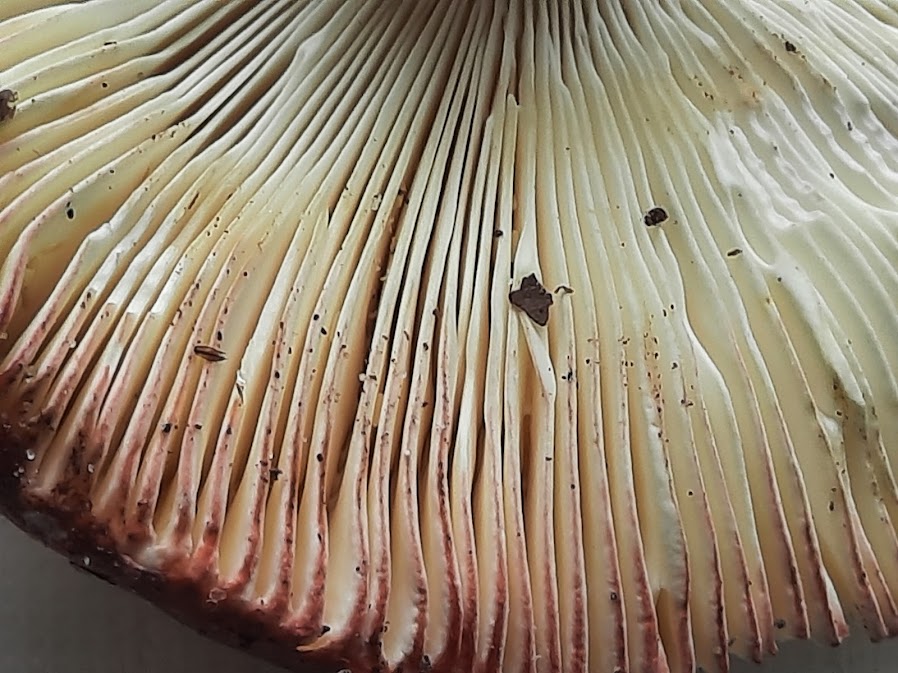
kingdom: Fungi
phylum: Basidiomycota
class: Agaricomycetes
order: Russulales
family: Russulaceae
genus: Russula
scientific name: Russula
